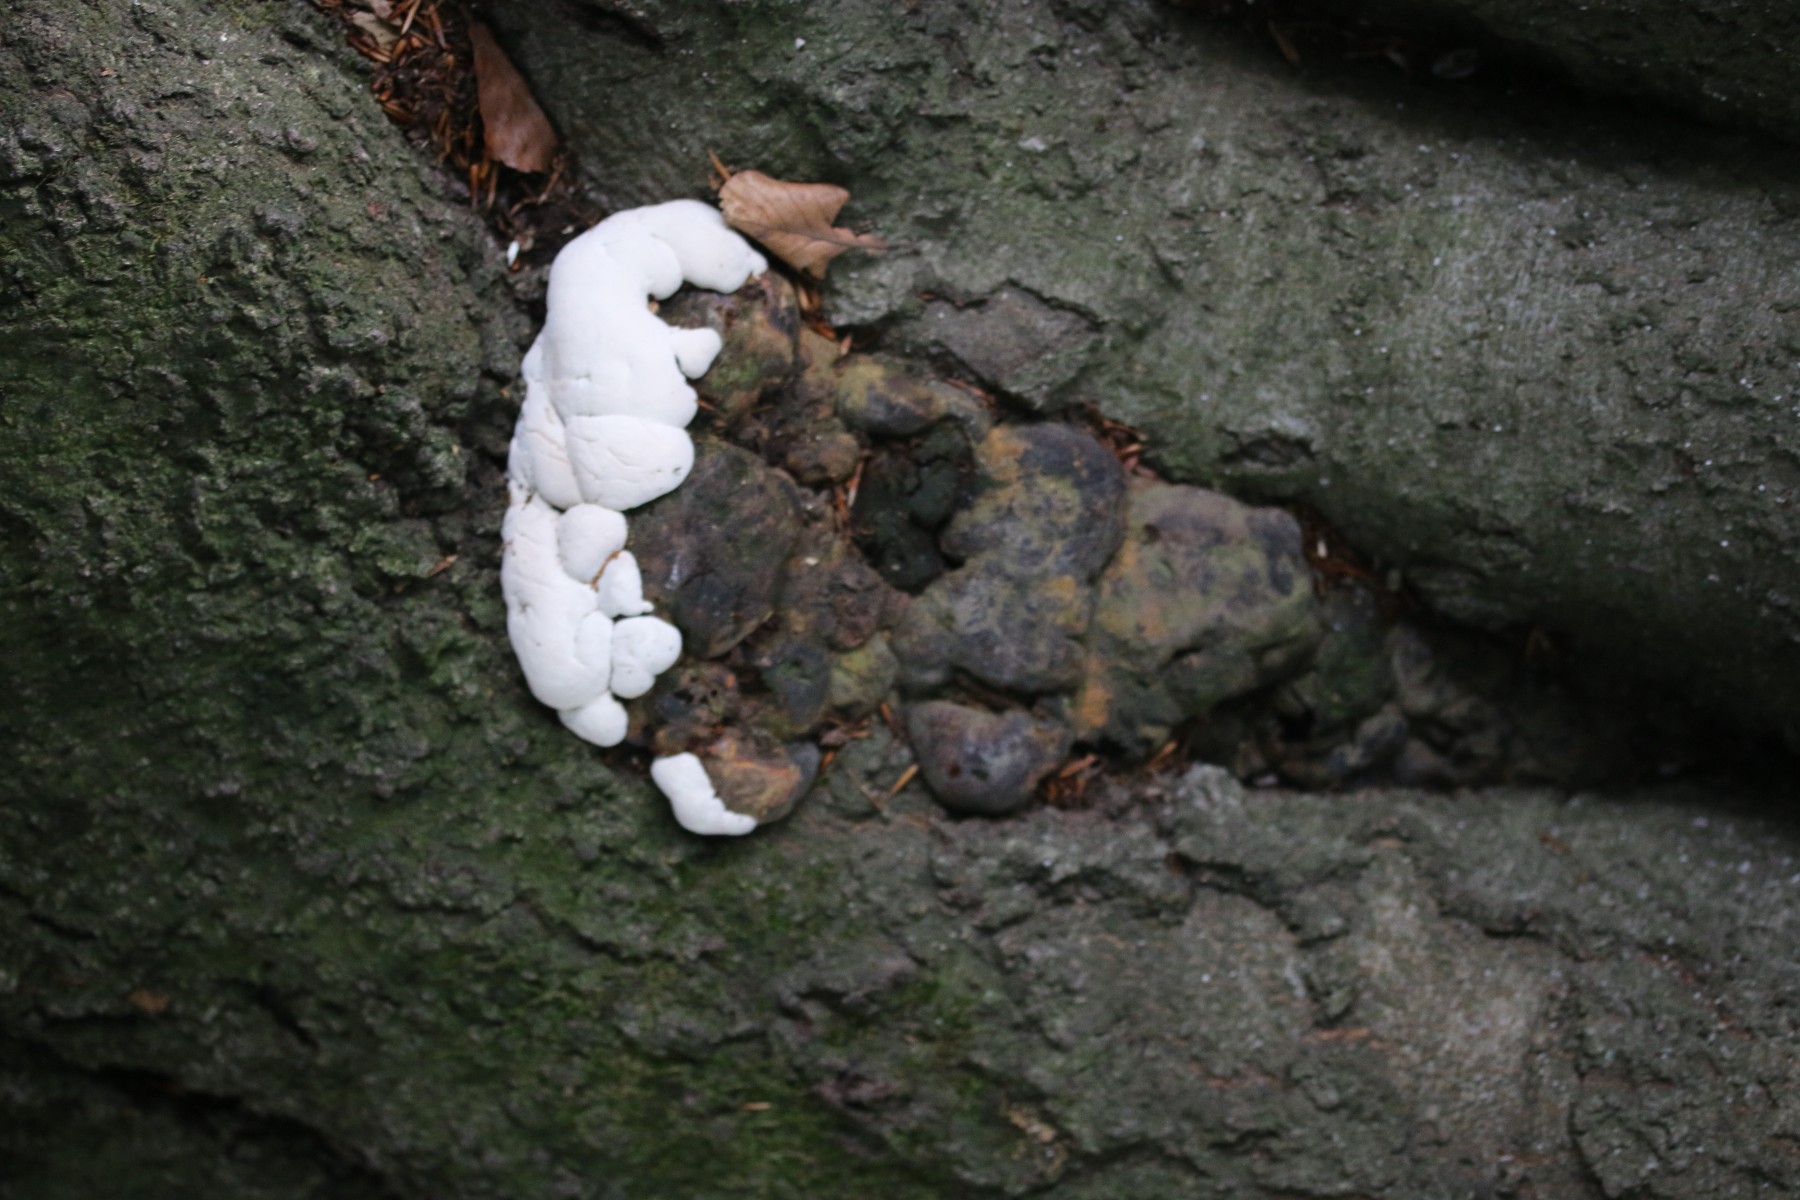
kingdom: Fungi
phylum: Basidiomycota
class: Agaricomycetes
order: Polyporales
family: Polyporaceae
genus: Ganoderma
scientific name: Ganoderma pfeifferi
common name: kobberrød lakporesvamp
